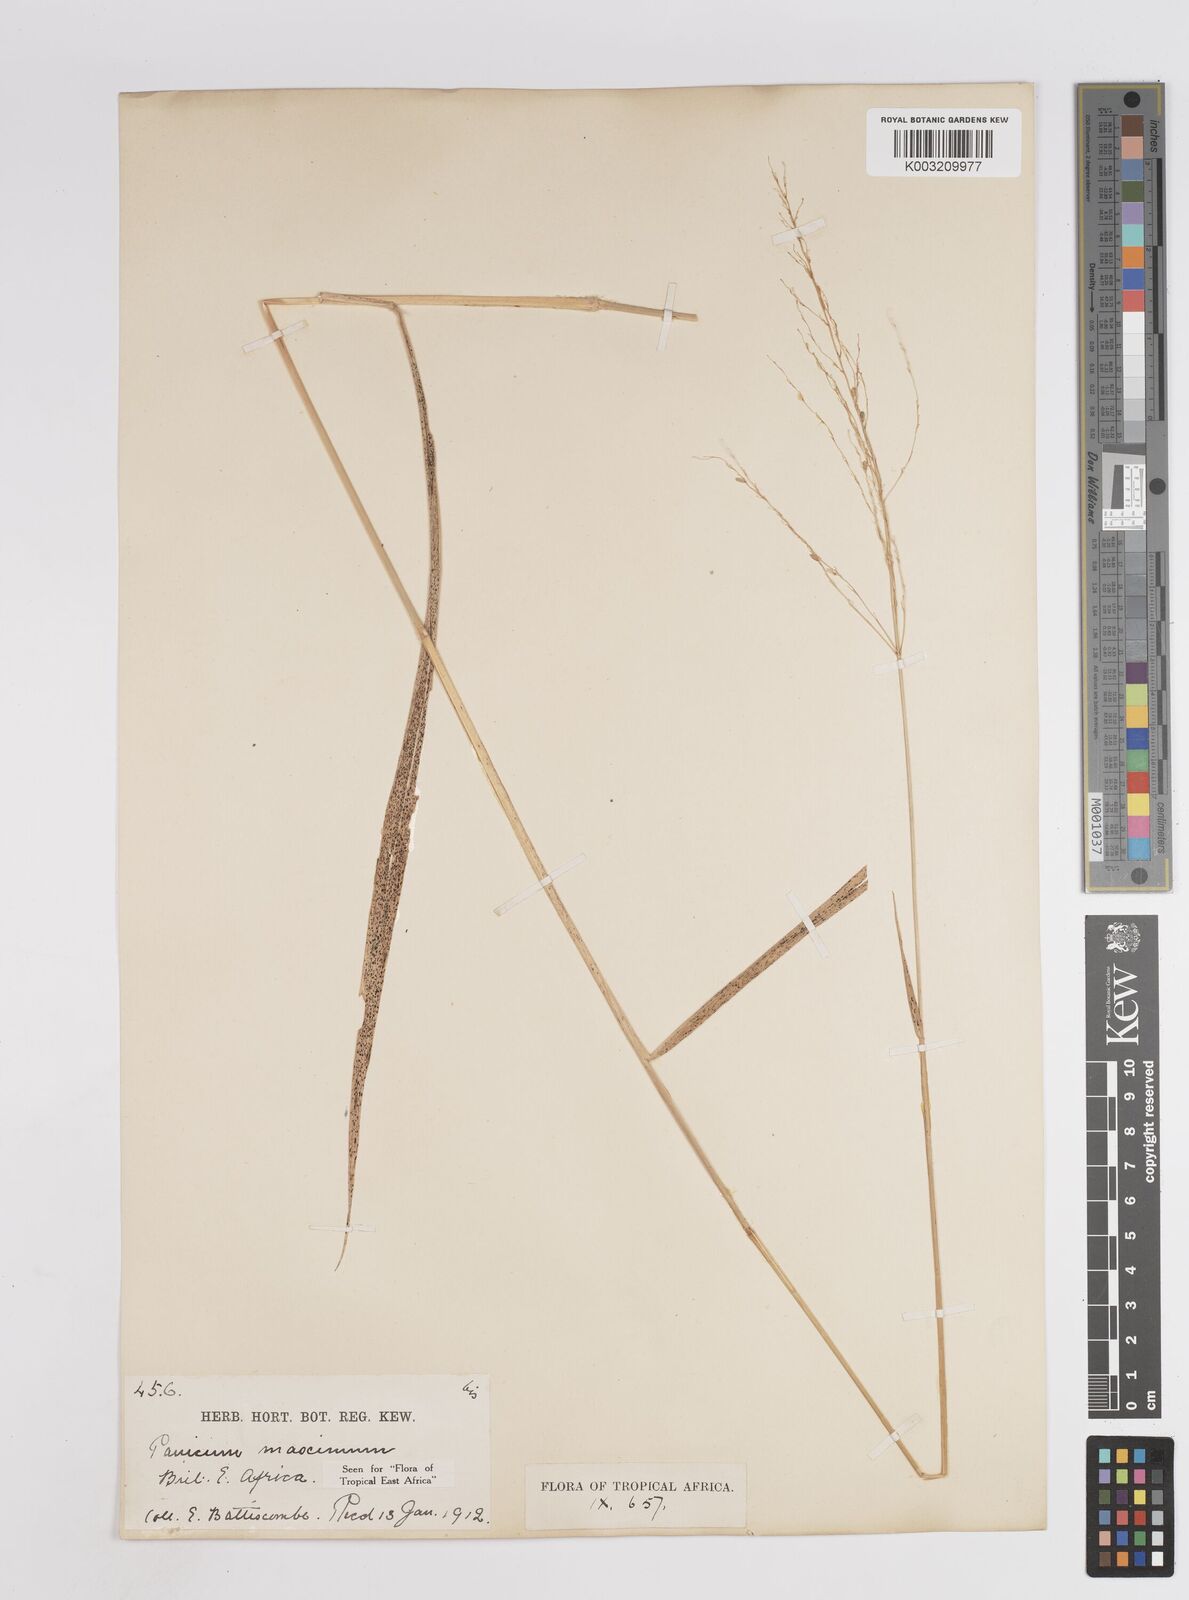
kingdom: Plantae
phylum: Tracheophyta
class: Liliopsida
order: Poales
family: Poaceae
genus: Megathyrsus
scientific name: Megathyrsus maximus
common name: Guineagrass
